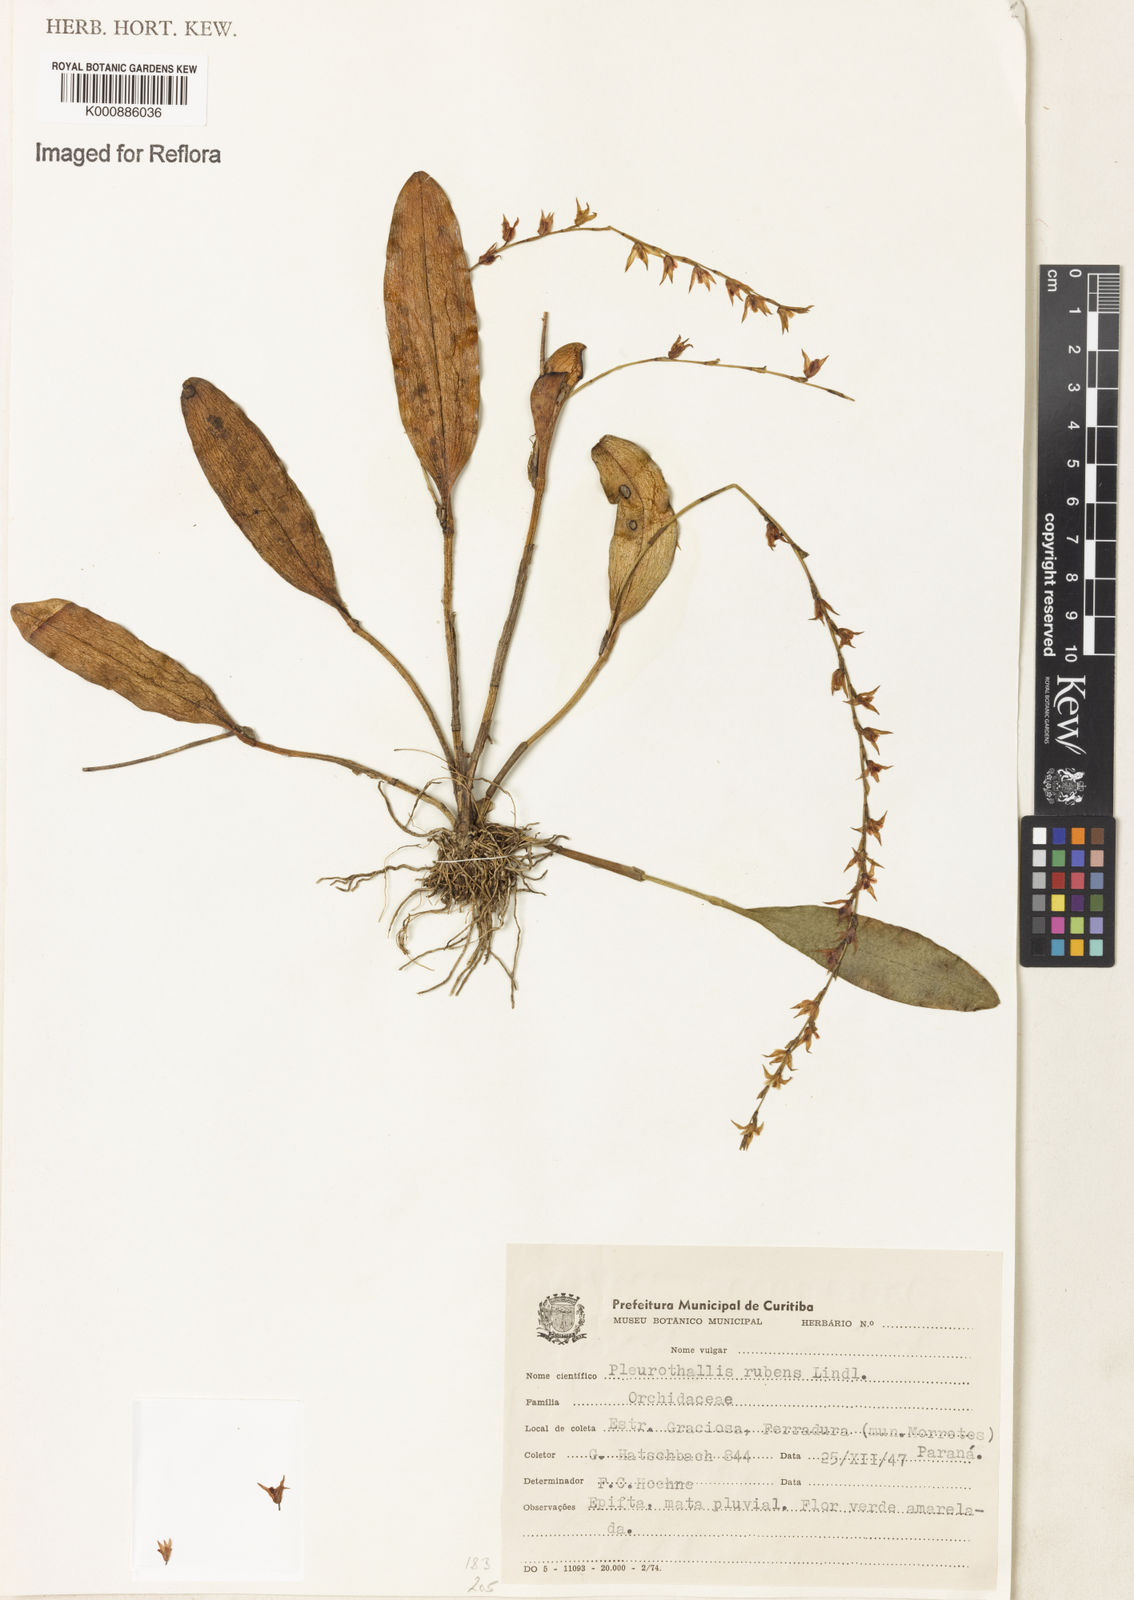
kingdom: Plantae
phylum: Tracheophyta
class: Liliopsida
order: Asparagales
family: Orchidaceae
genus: Stelis
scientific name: Stelis montserratii
